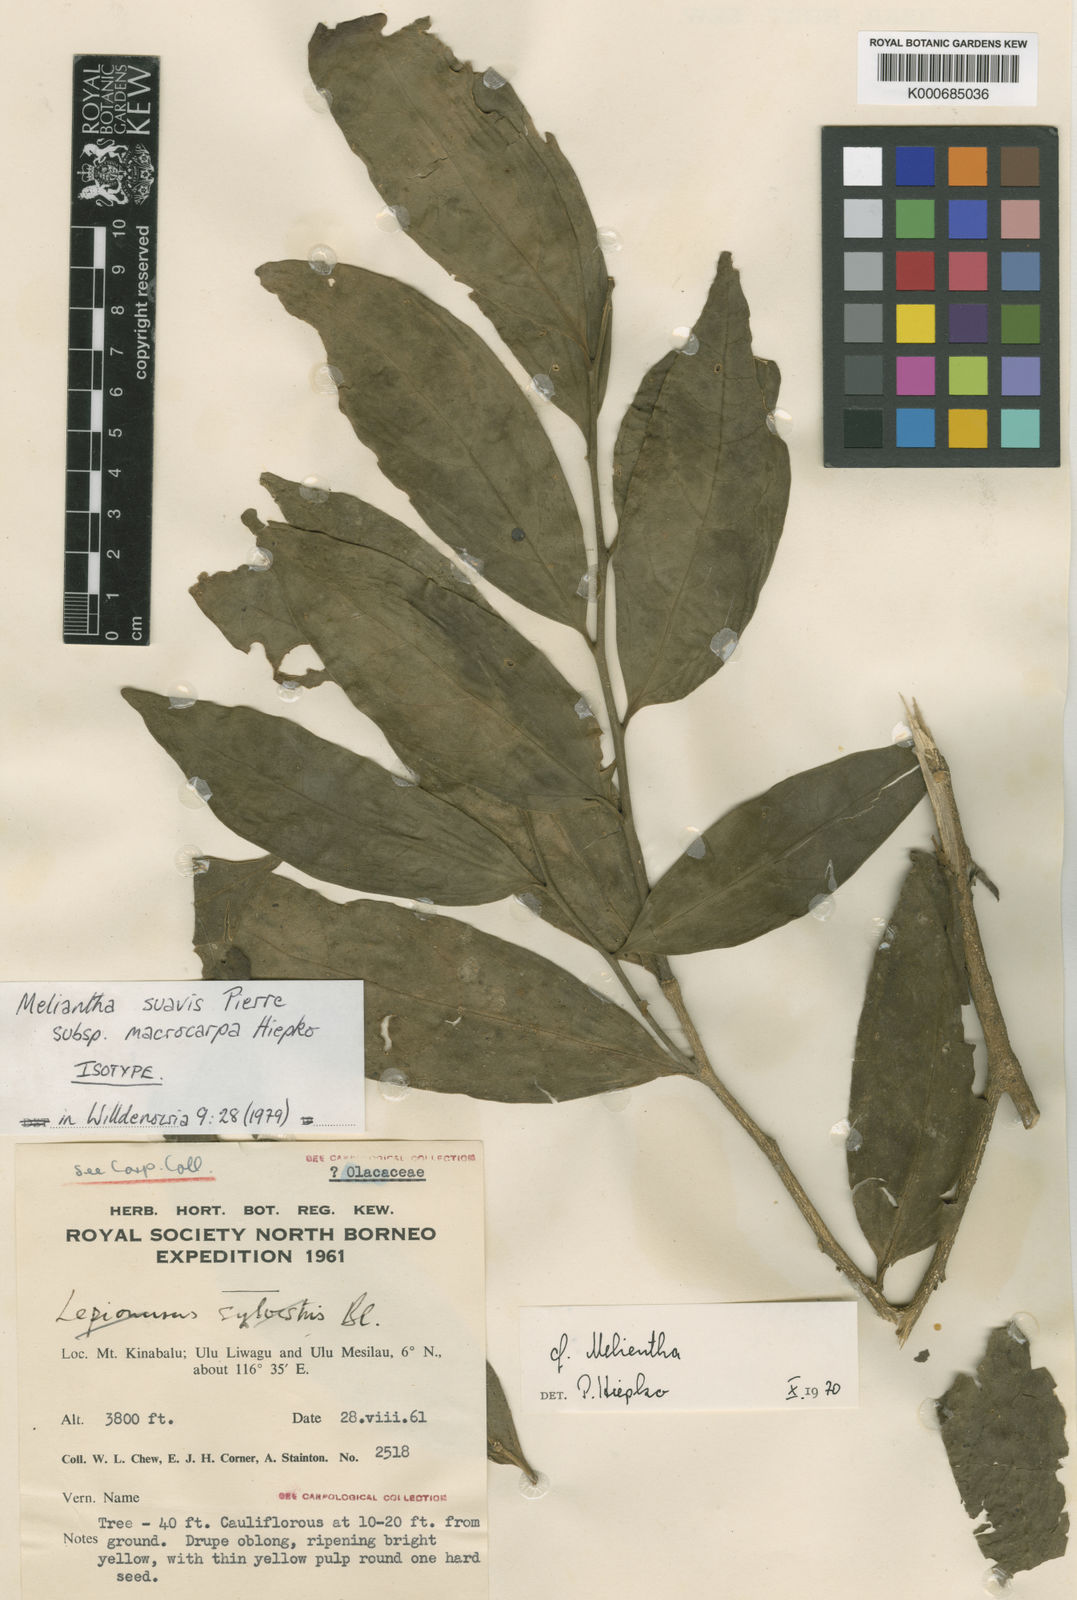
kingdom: Plantae
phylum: Tracheophyta
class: Magnoliopsida
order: Santalales
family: Opiliaceae
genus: Melientha
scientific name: Melientha suavis
